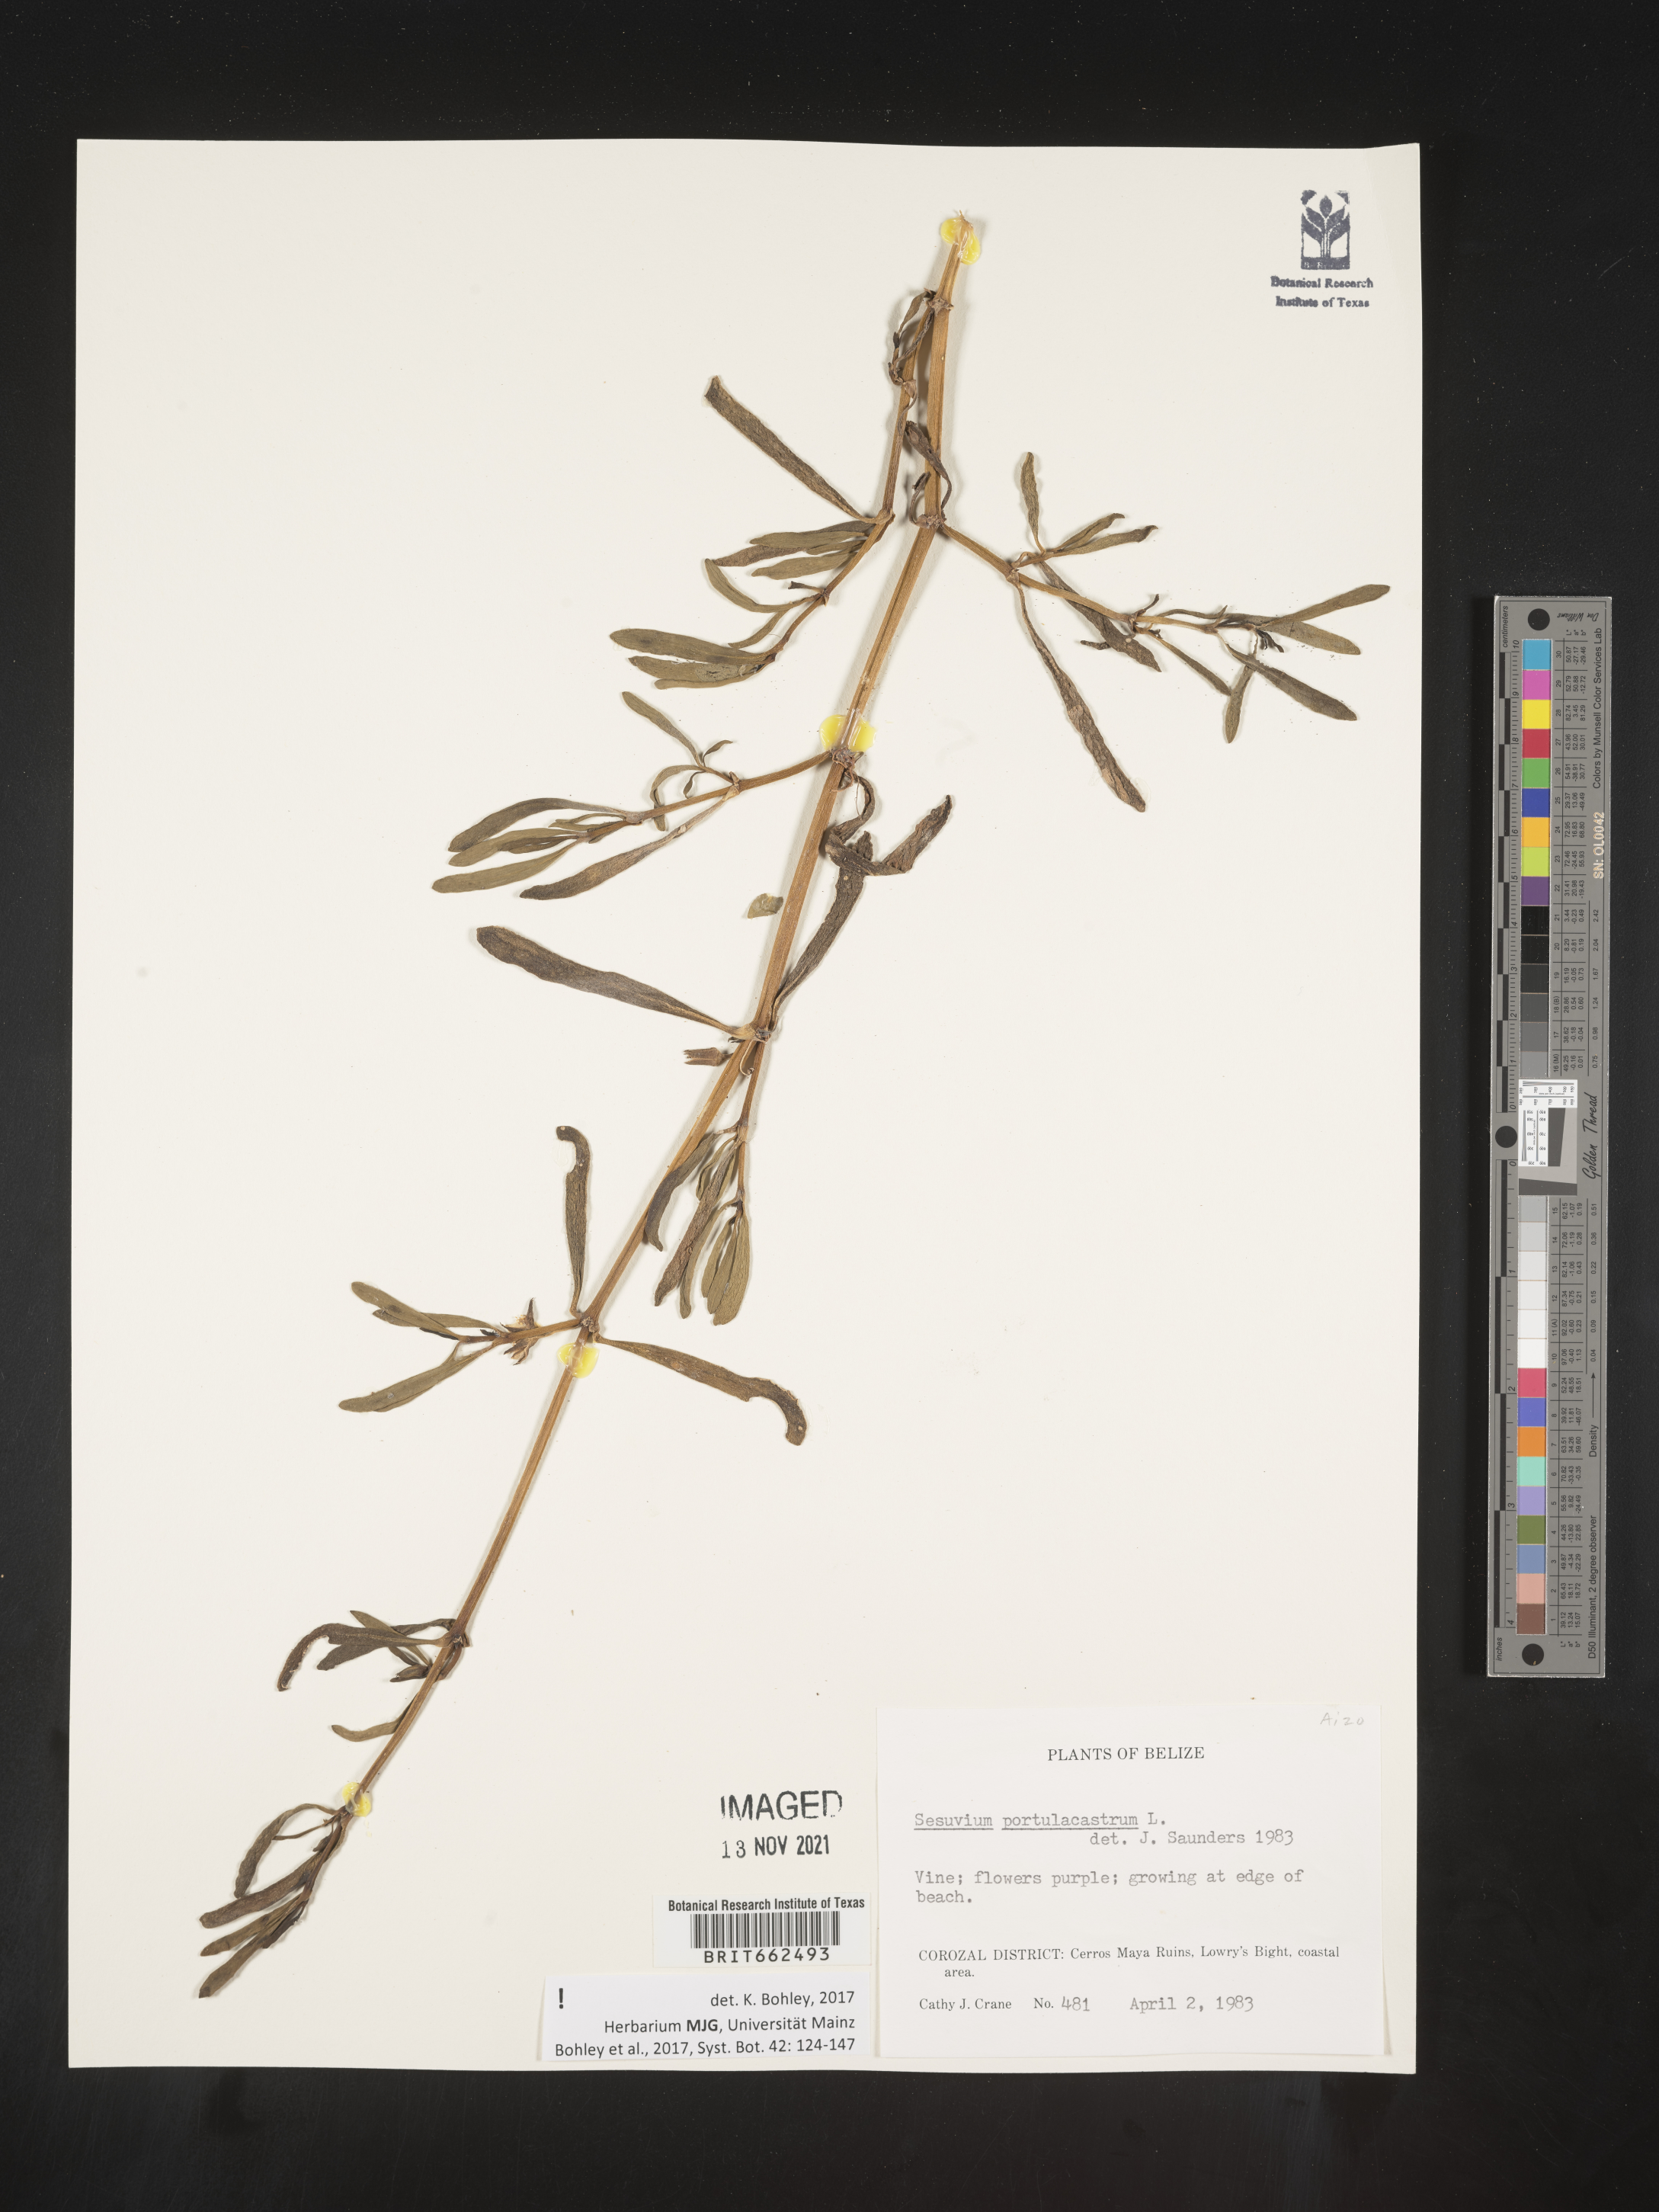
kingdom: Plantae
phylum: Tracheophyta
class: Magnoliopsida
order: Caryophyllales
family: Aizoaceae
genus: Sesuvium
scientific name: Sesuvium
